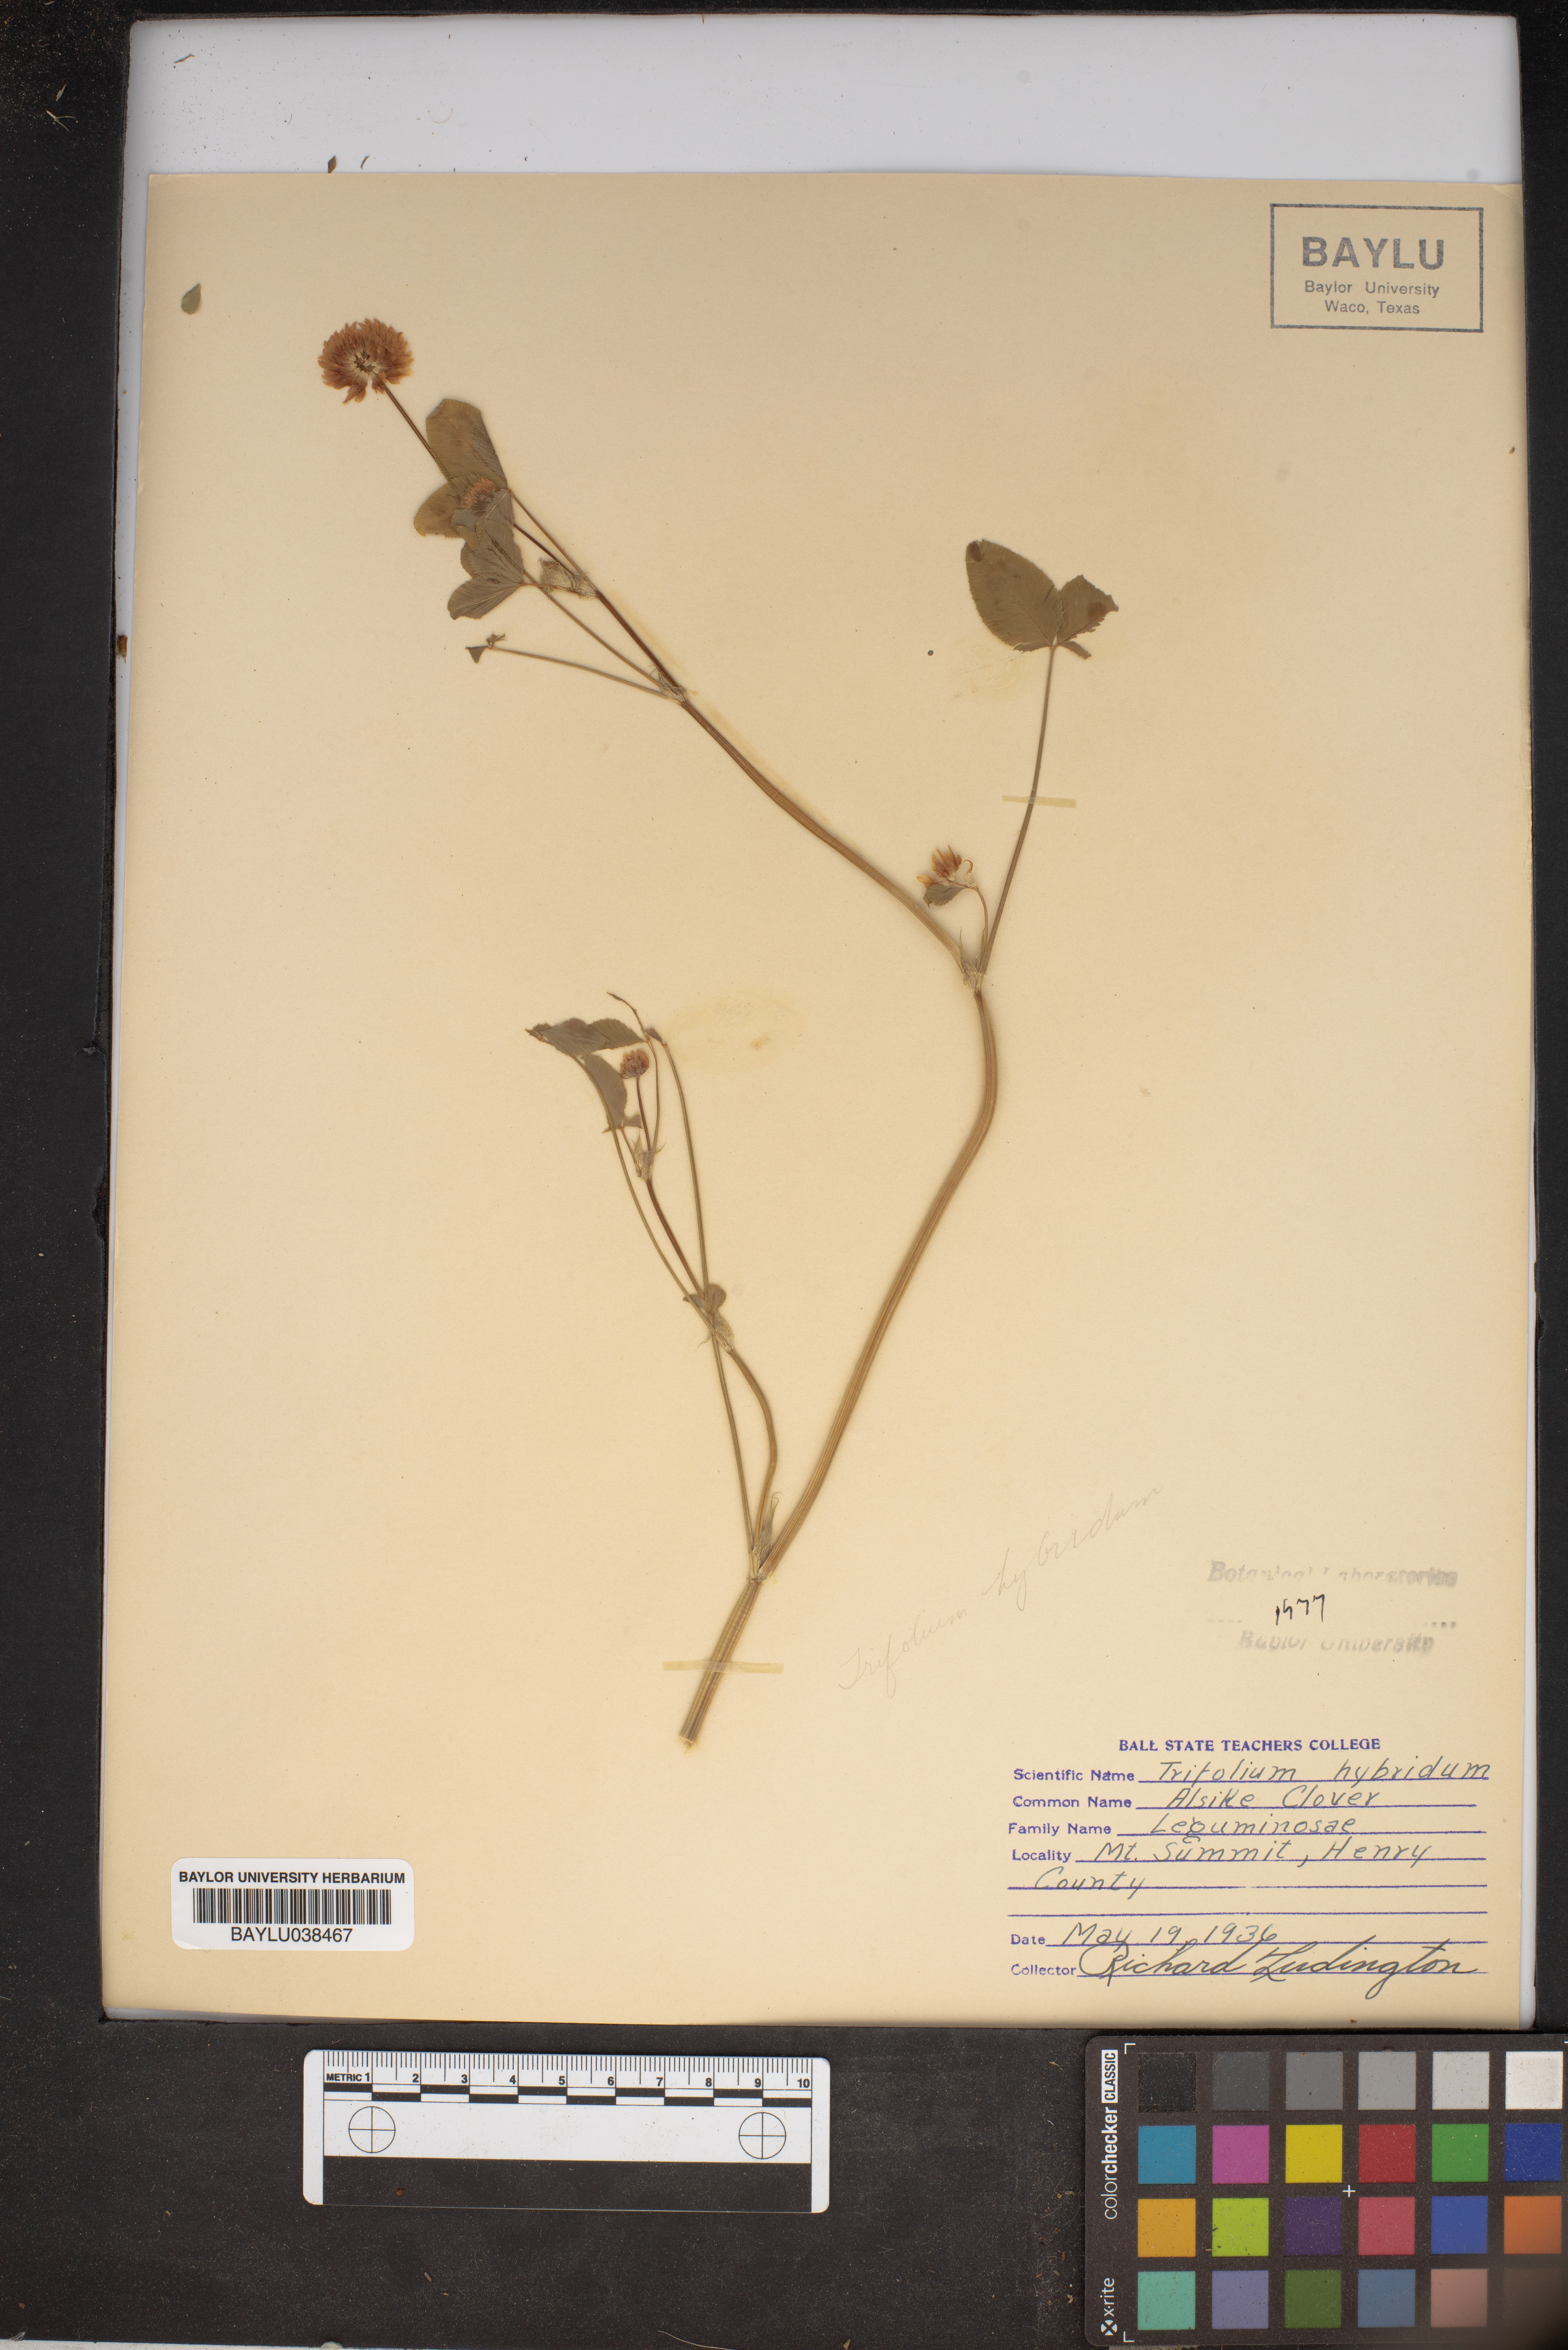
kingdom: Plantae
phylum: Tracheophyta
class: Magnoliopsida
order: Fabales
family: Fabaceae
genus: Trifolium
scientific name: Trifolium hybridum
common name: Alsike clover
